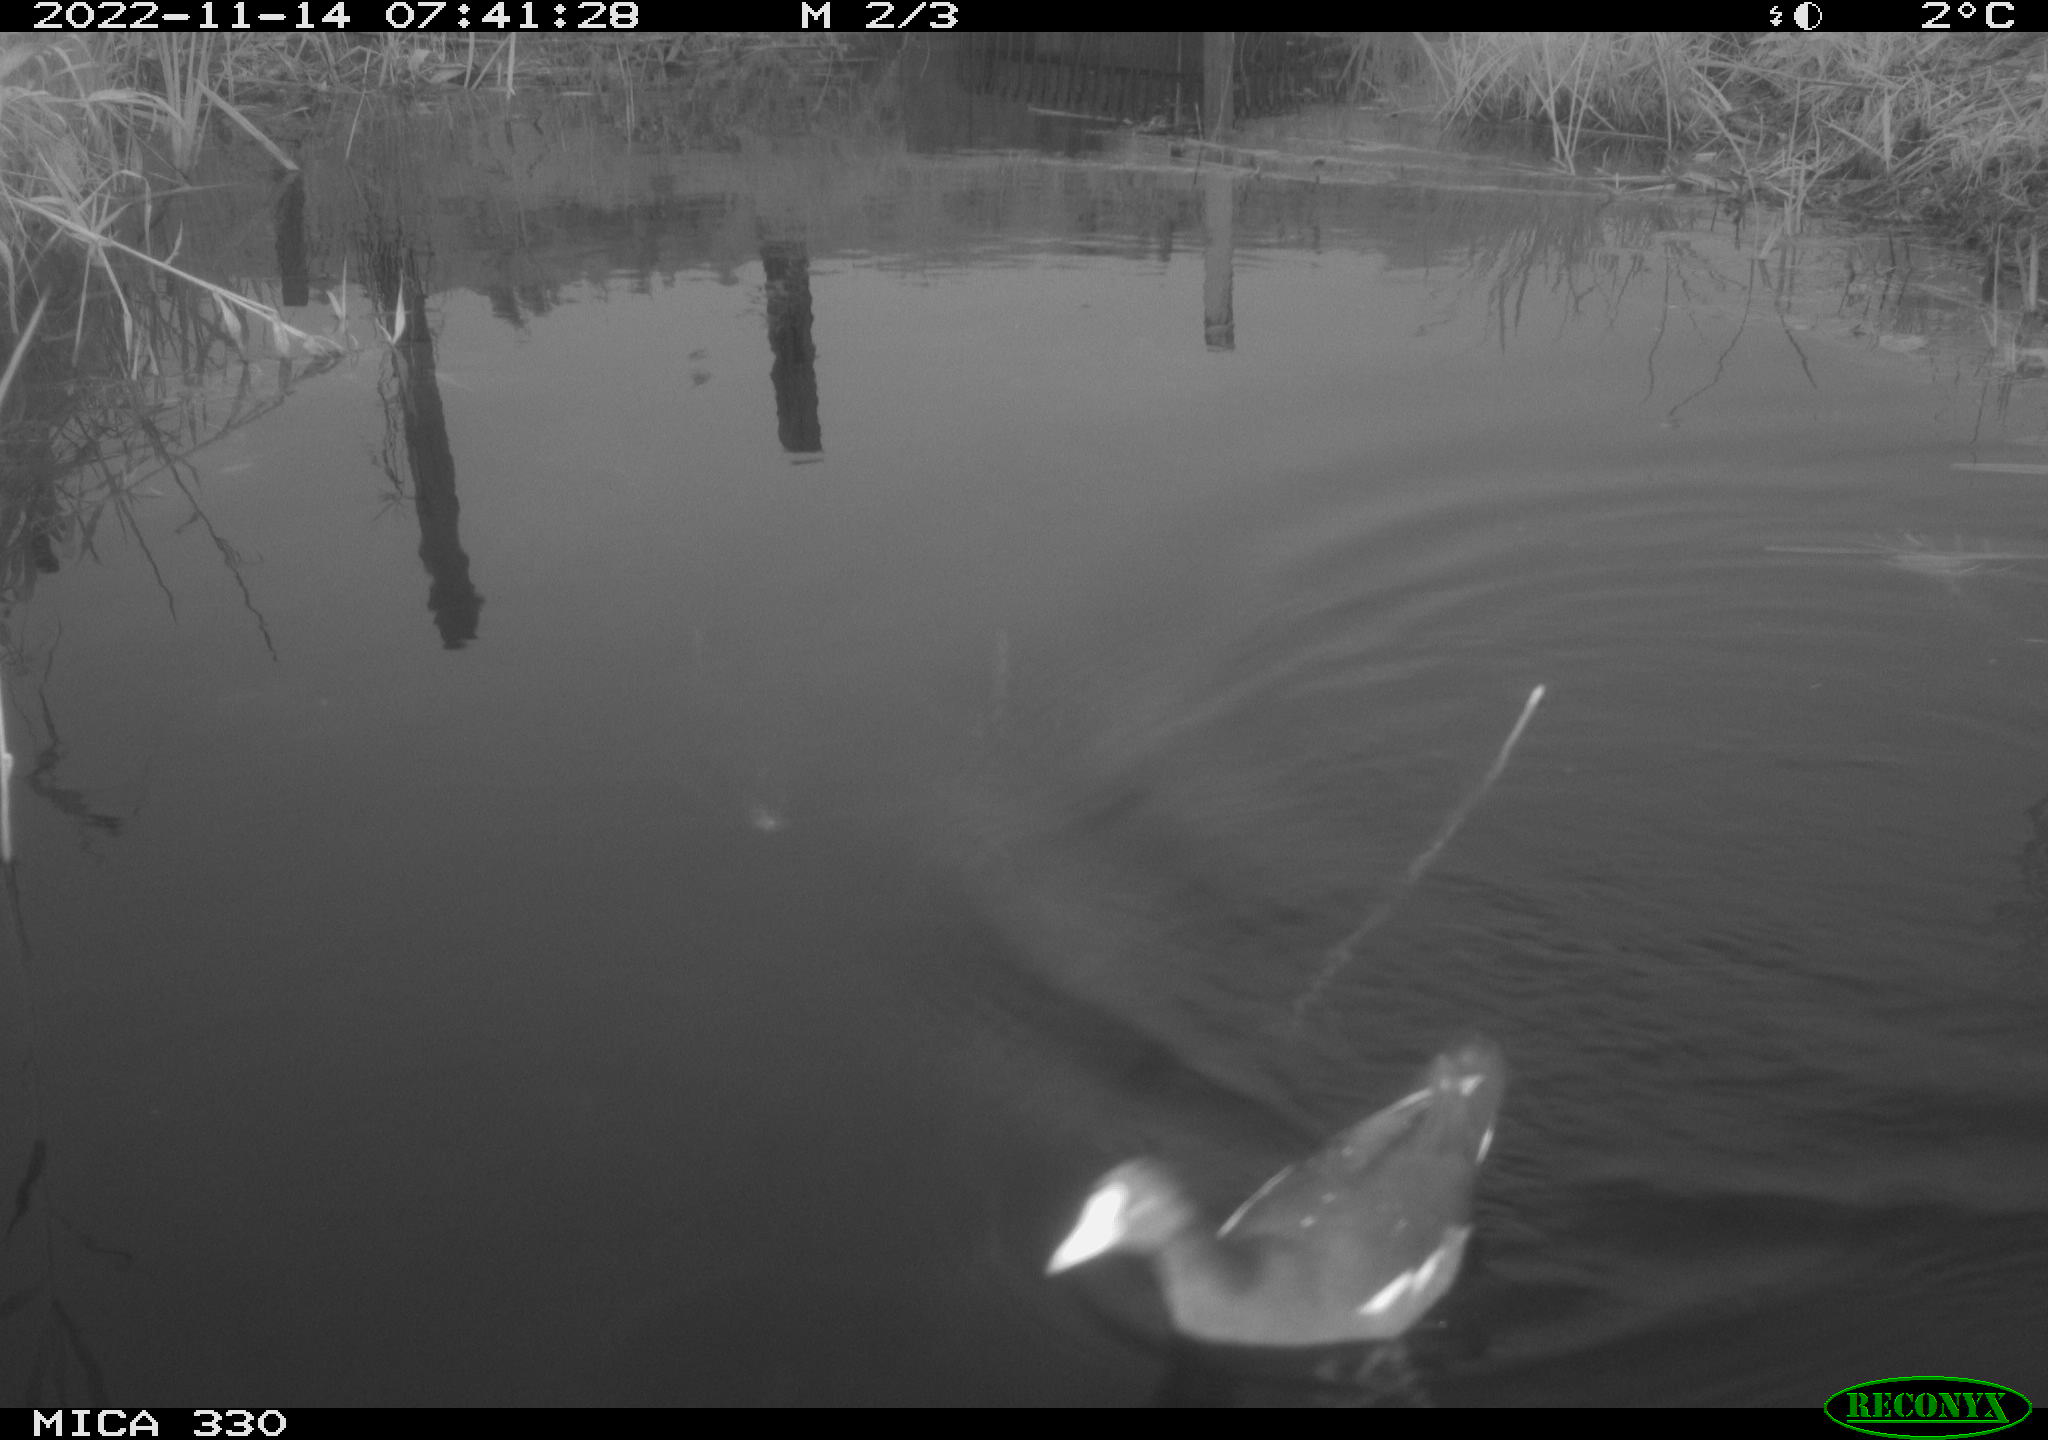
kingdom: Animalia
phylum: Chordata
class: Aves
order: Gruiformes
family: Rallidae
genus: Gallinula
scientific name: Gallinula chloropus
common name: Common moorhen
